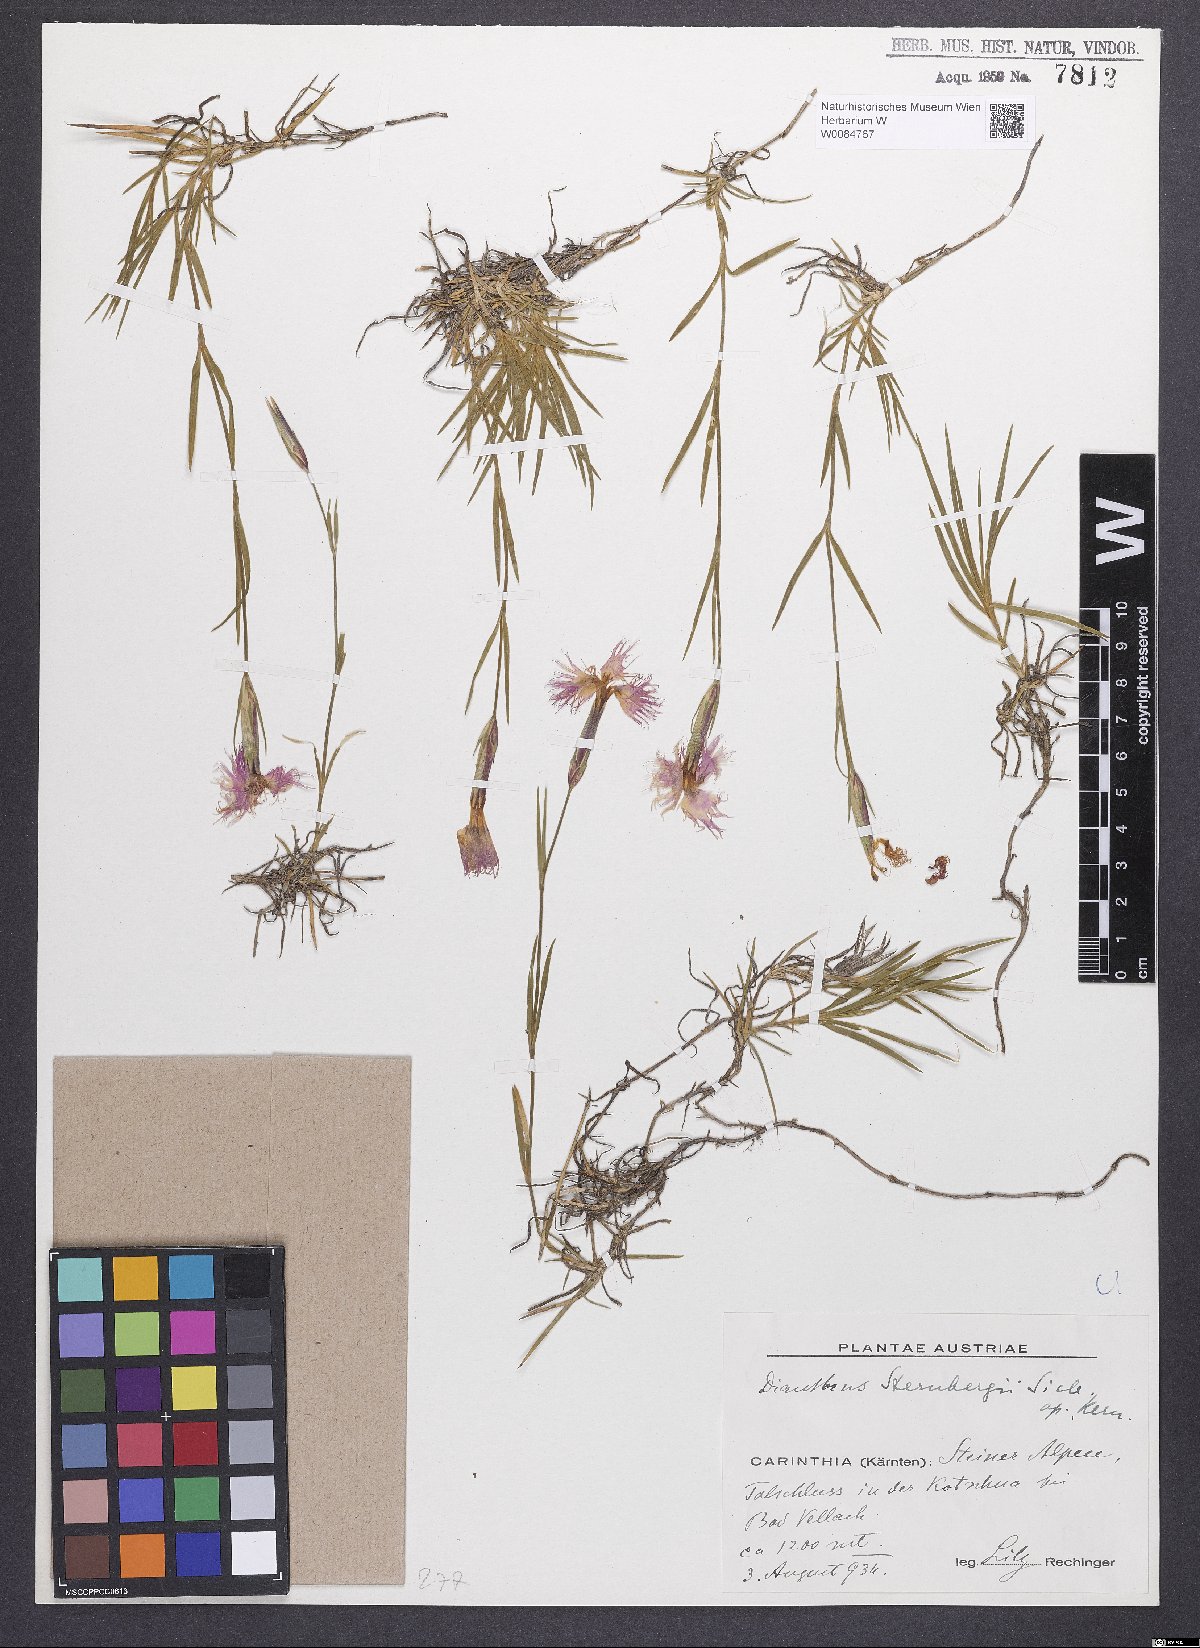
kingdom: Plantae
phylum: Tracheophyta
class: Magnoliopsida
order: Caryophyllales
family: Caryophyllaceae
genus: Dianthus
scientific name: Dianthus monspessulanus
